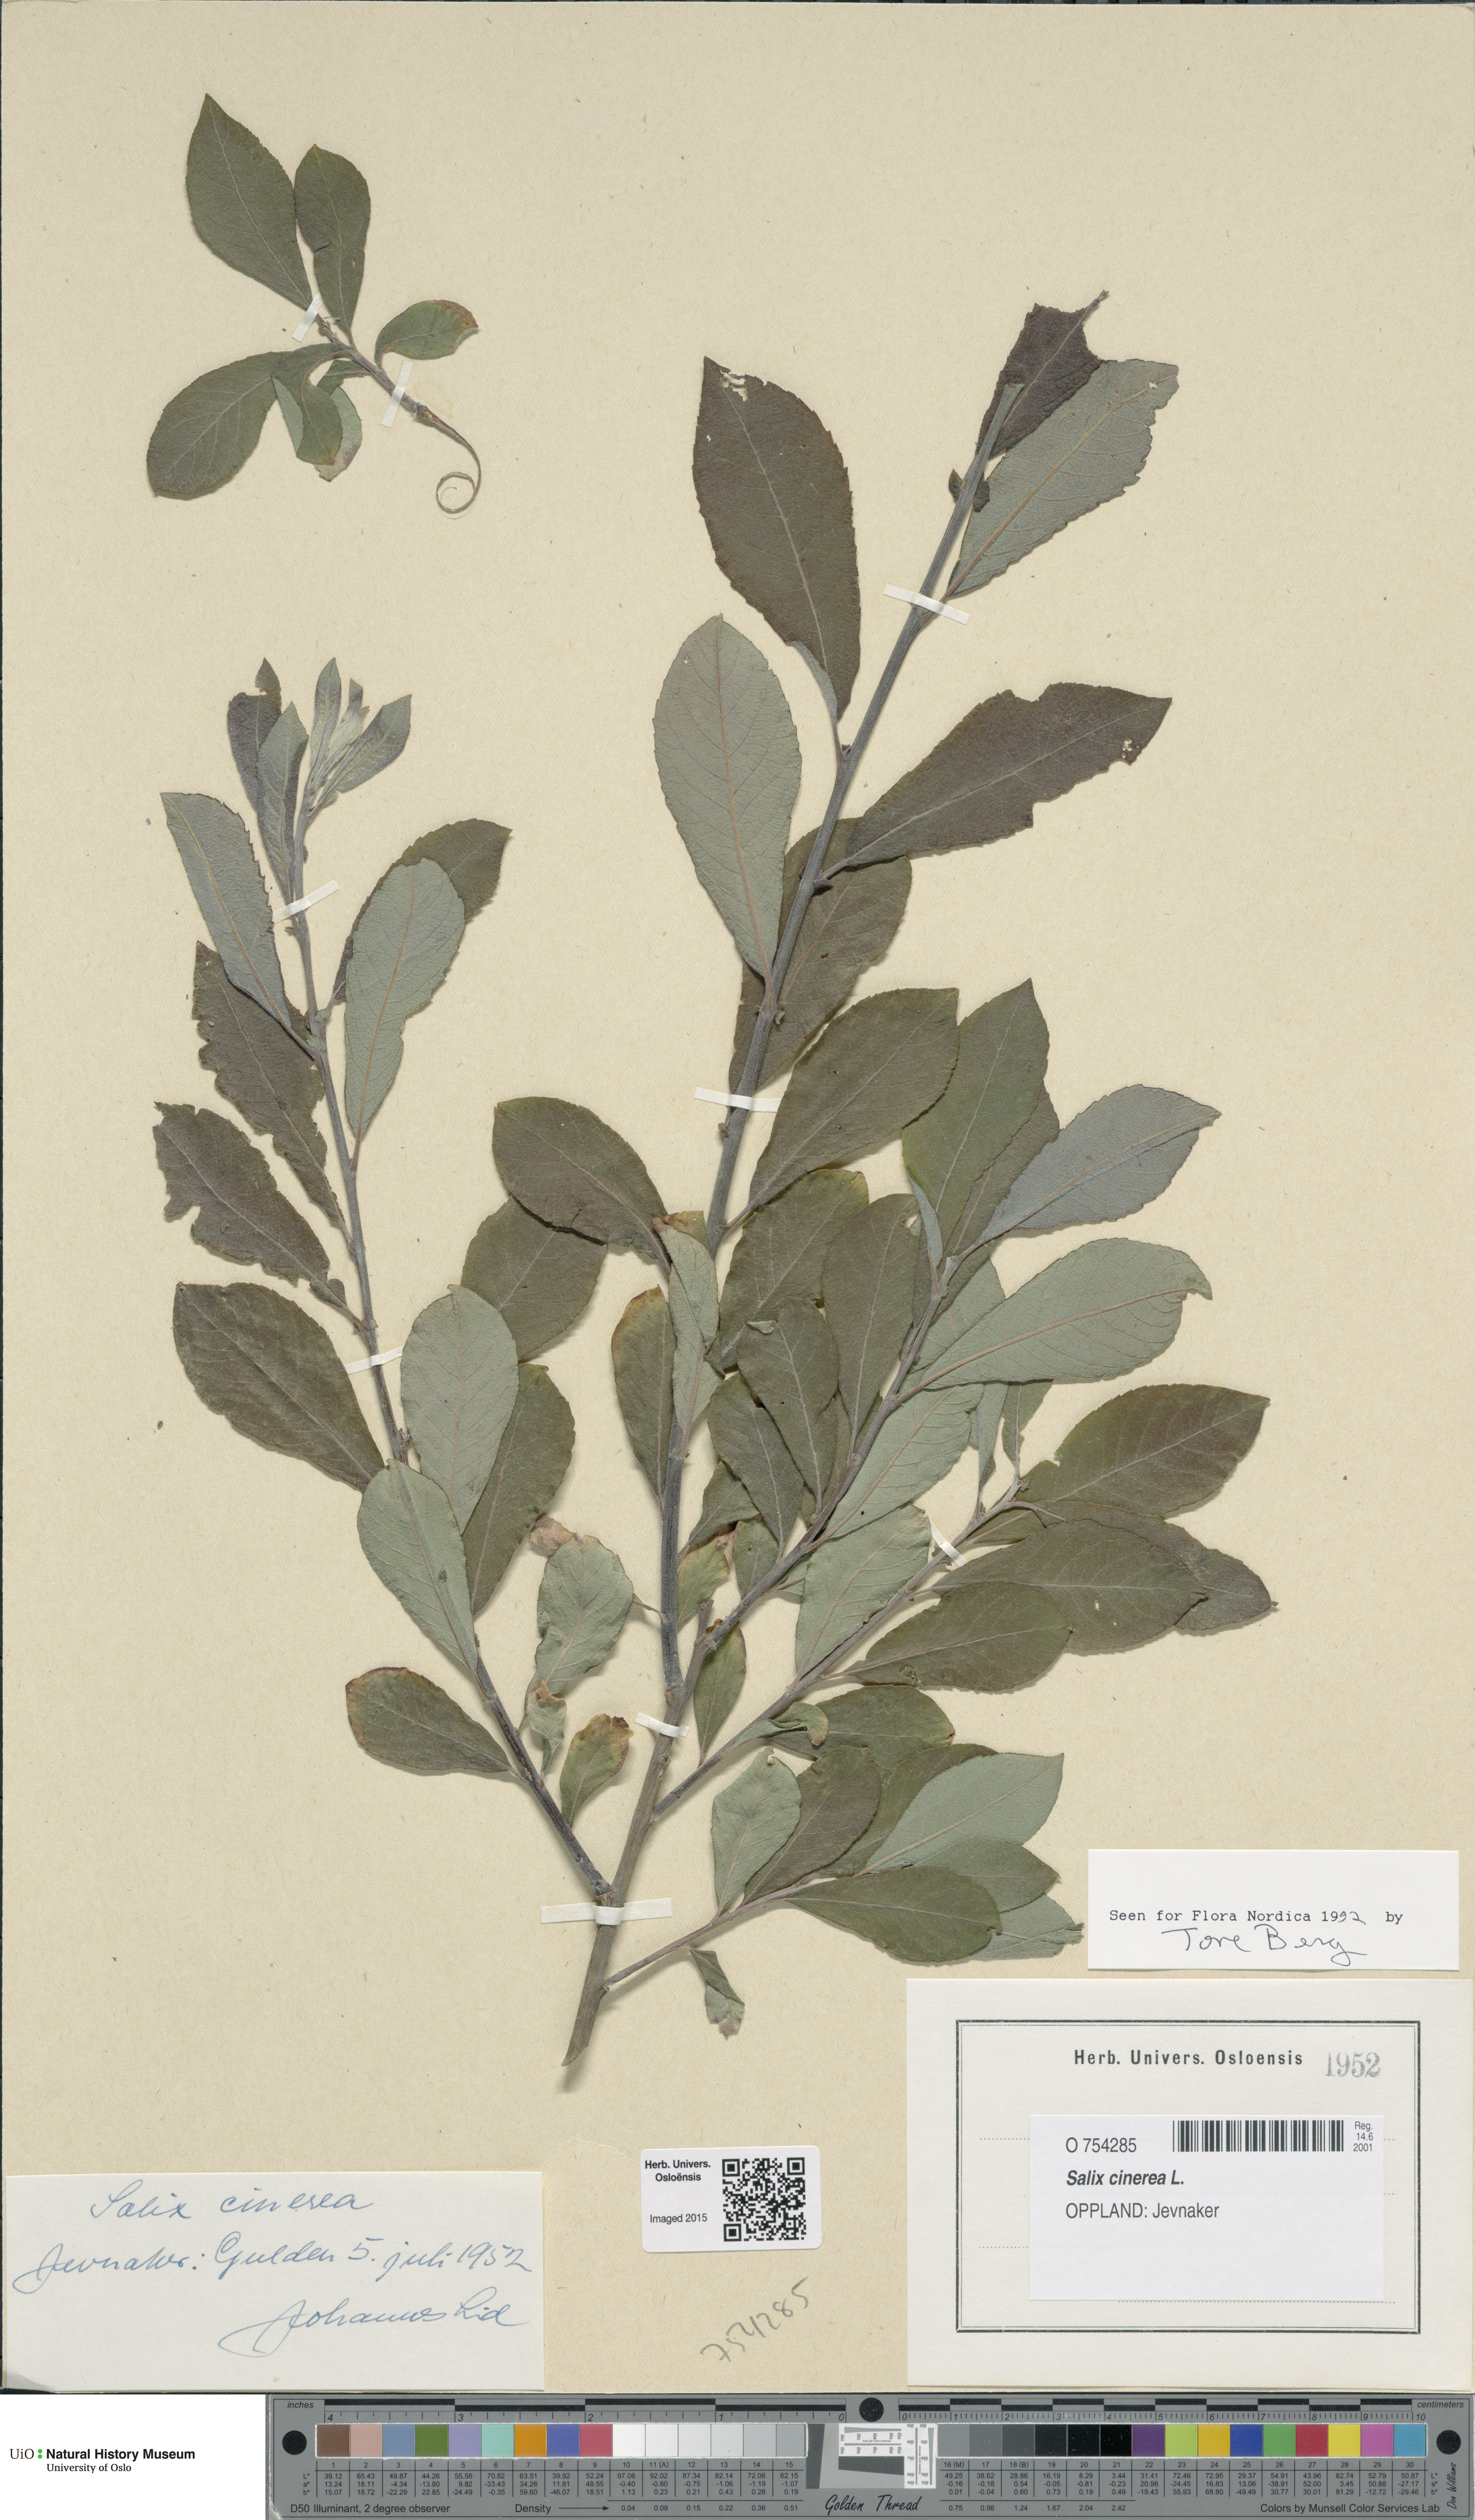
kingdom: Plantae
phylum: Tracheophyta
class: Magnoliopsida
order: Malpighiales
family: Salicaceae
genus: Salix
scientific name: Salix cinerea
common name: Common sallow
